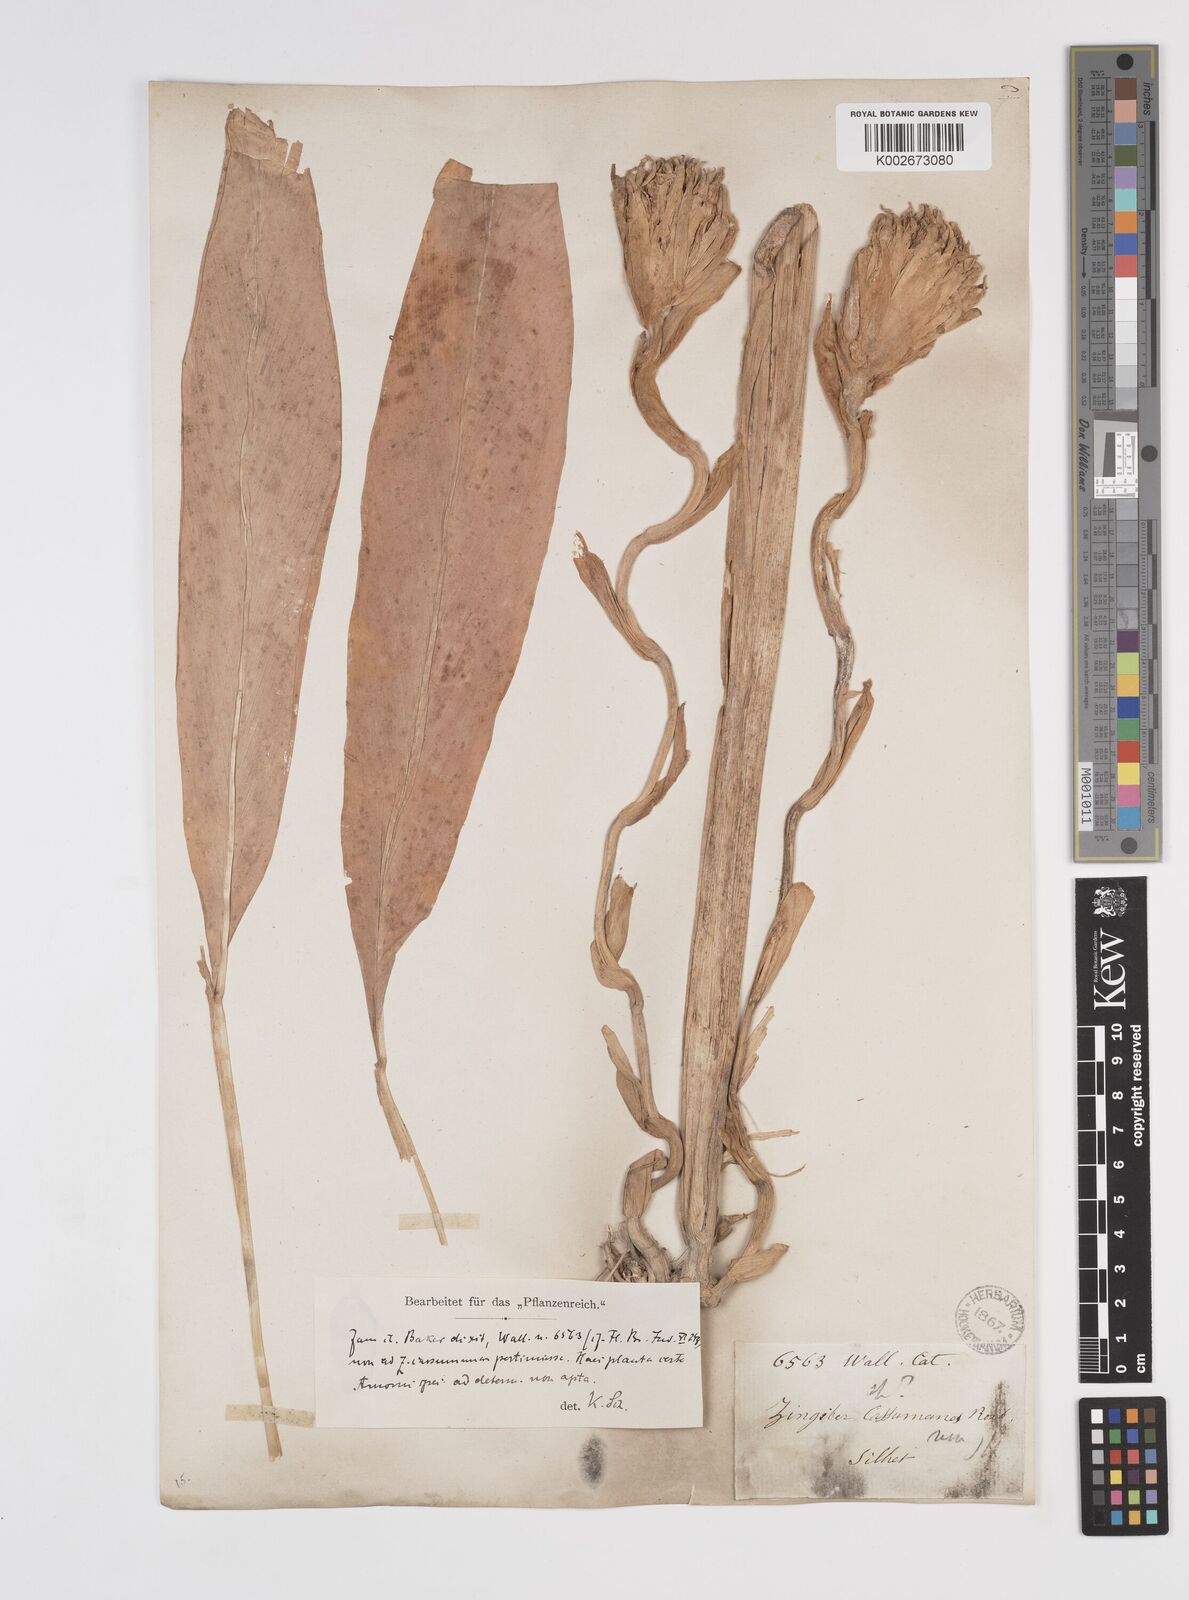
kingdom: Plantae
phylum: Tracheophyta
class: Liliopsida
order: Zingiberales
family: Zingiberaceae
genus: Amomum
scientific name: Amomum
